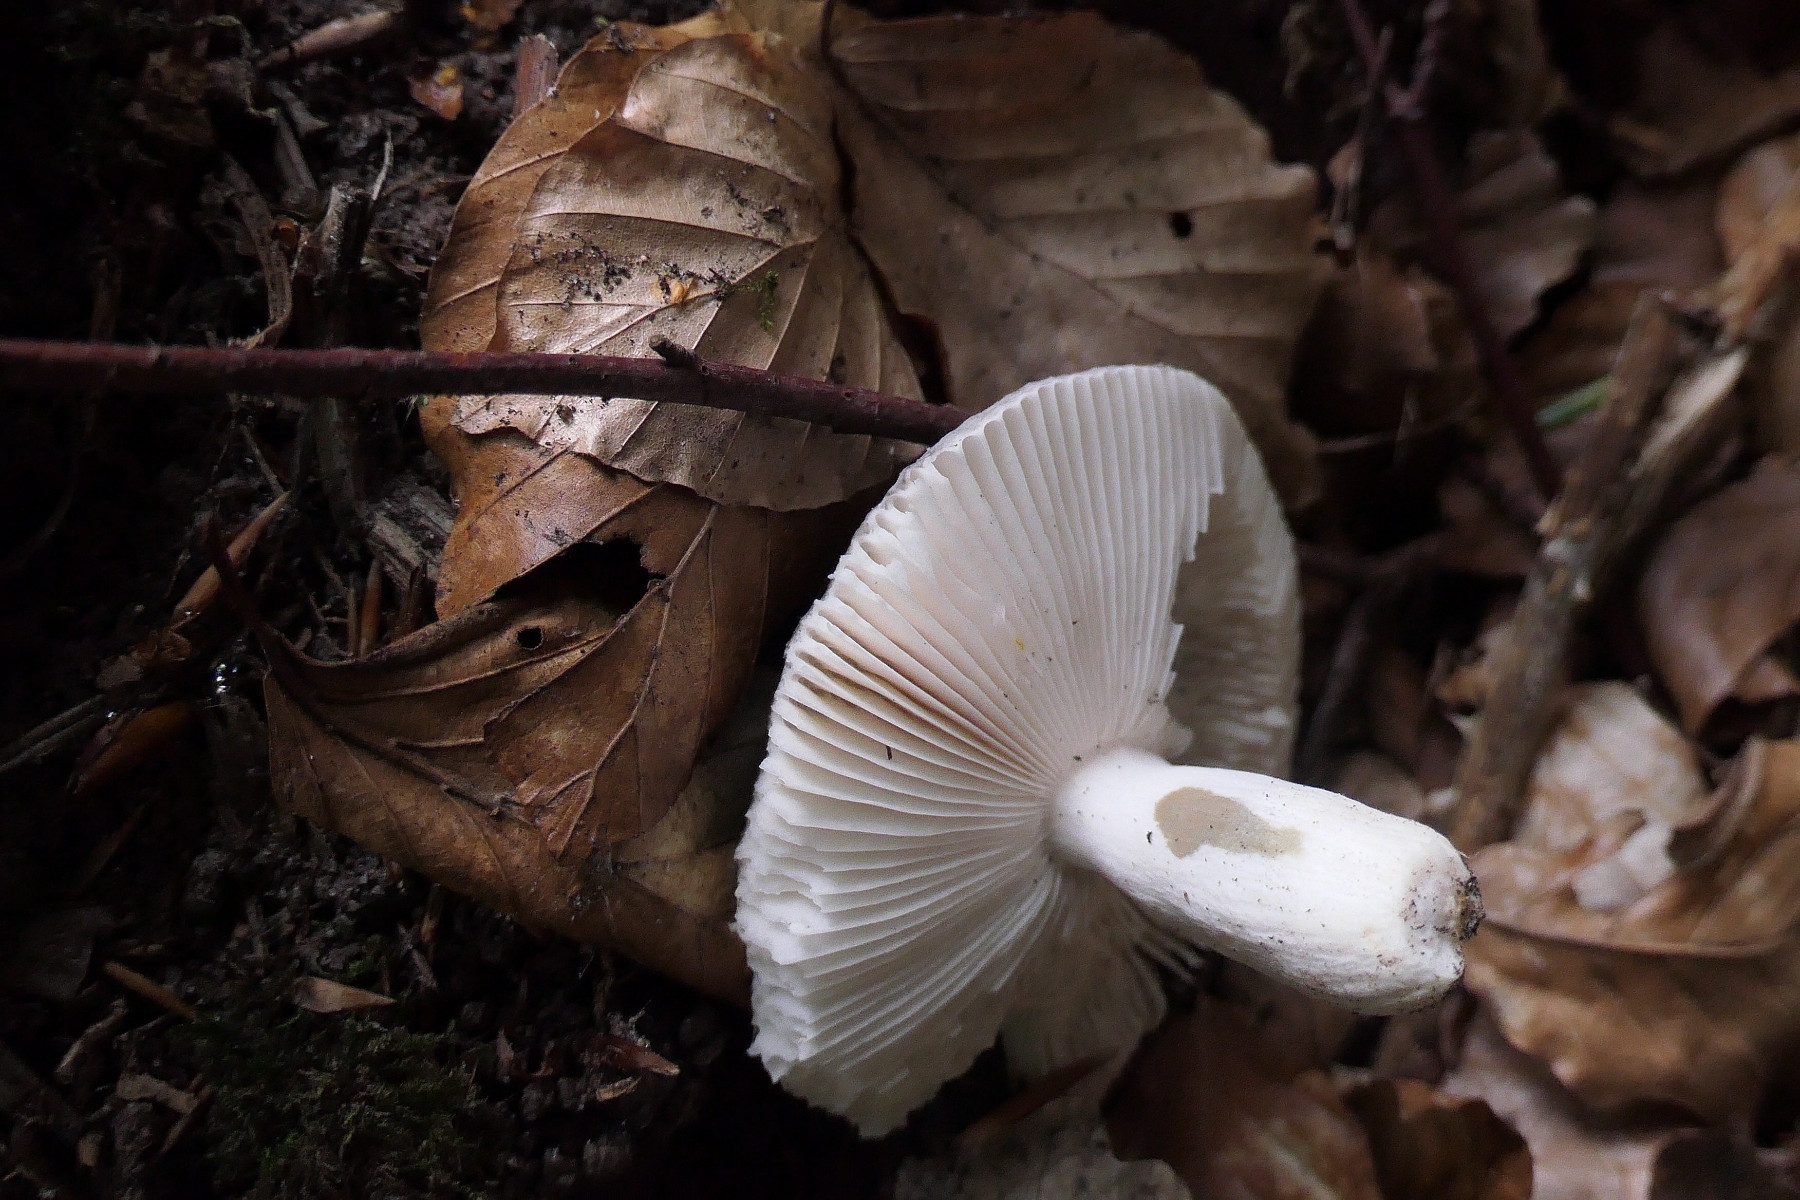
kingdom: Fungi
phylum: Basidiomycota
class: Agaricomycetes
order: Russulales
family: Russulaceae
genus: Russula
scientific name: Russula parazurea
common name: blågrå skørhat
